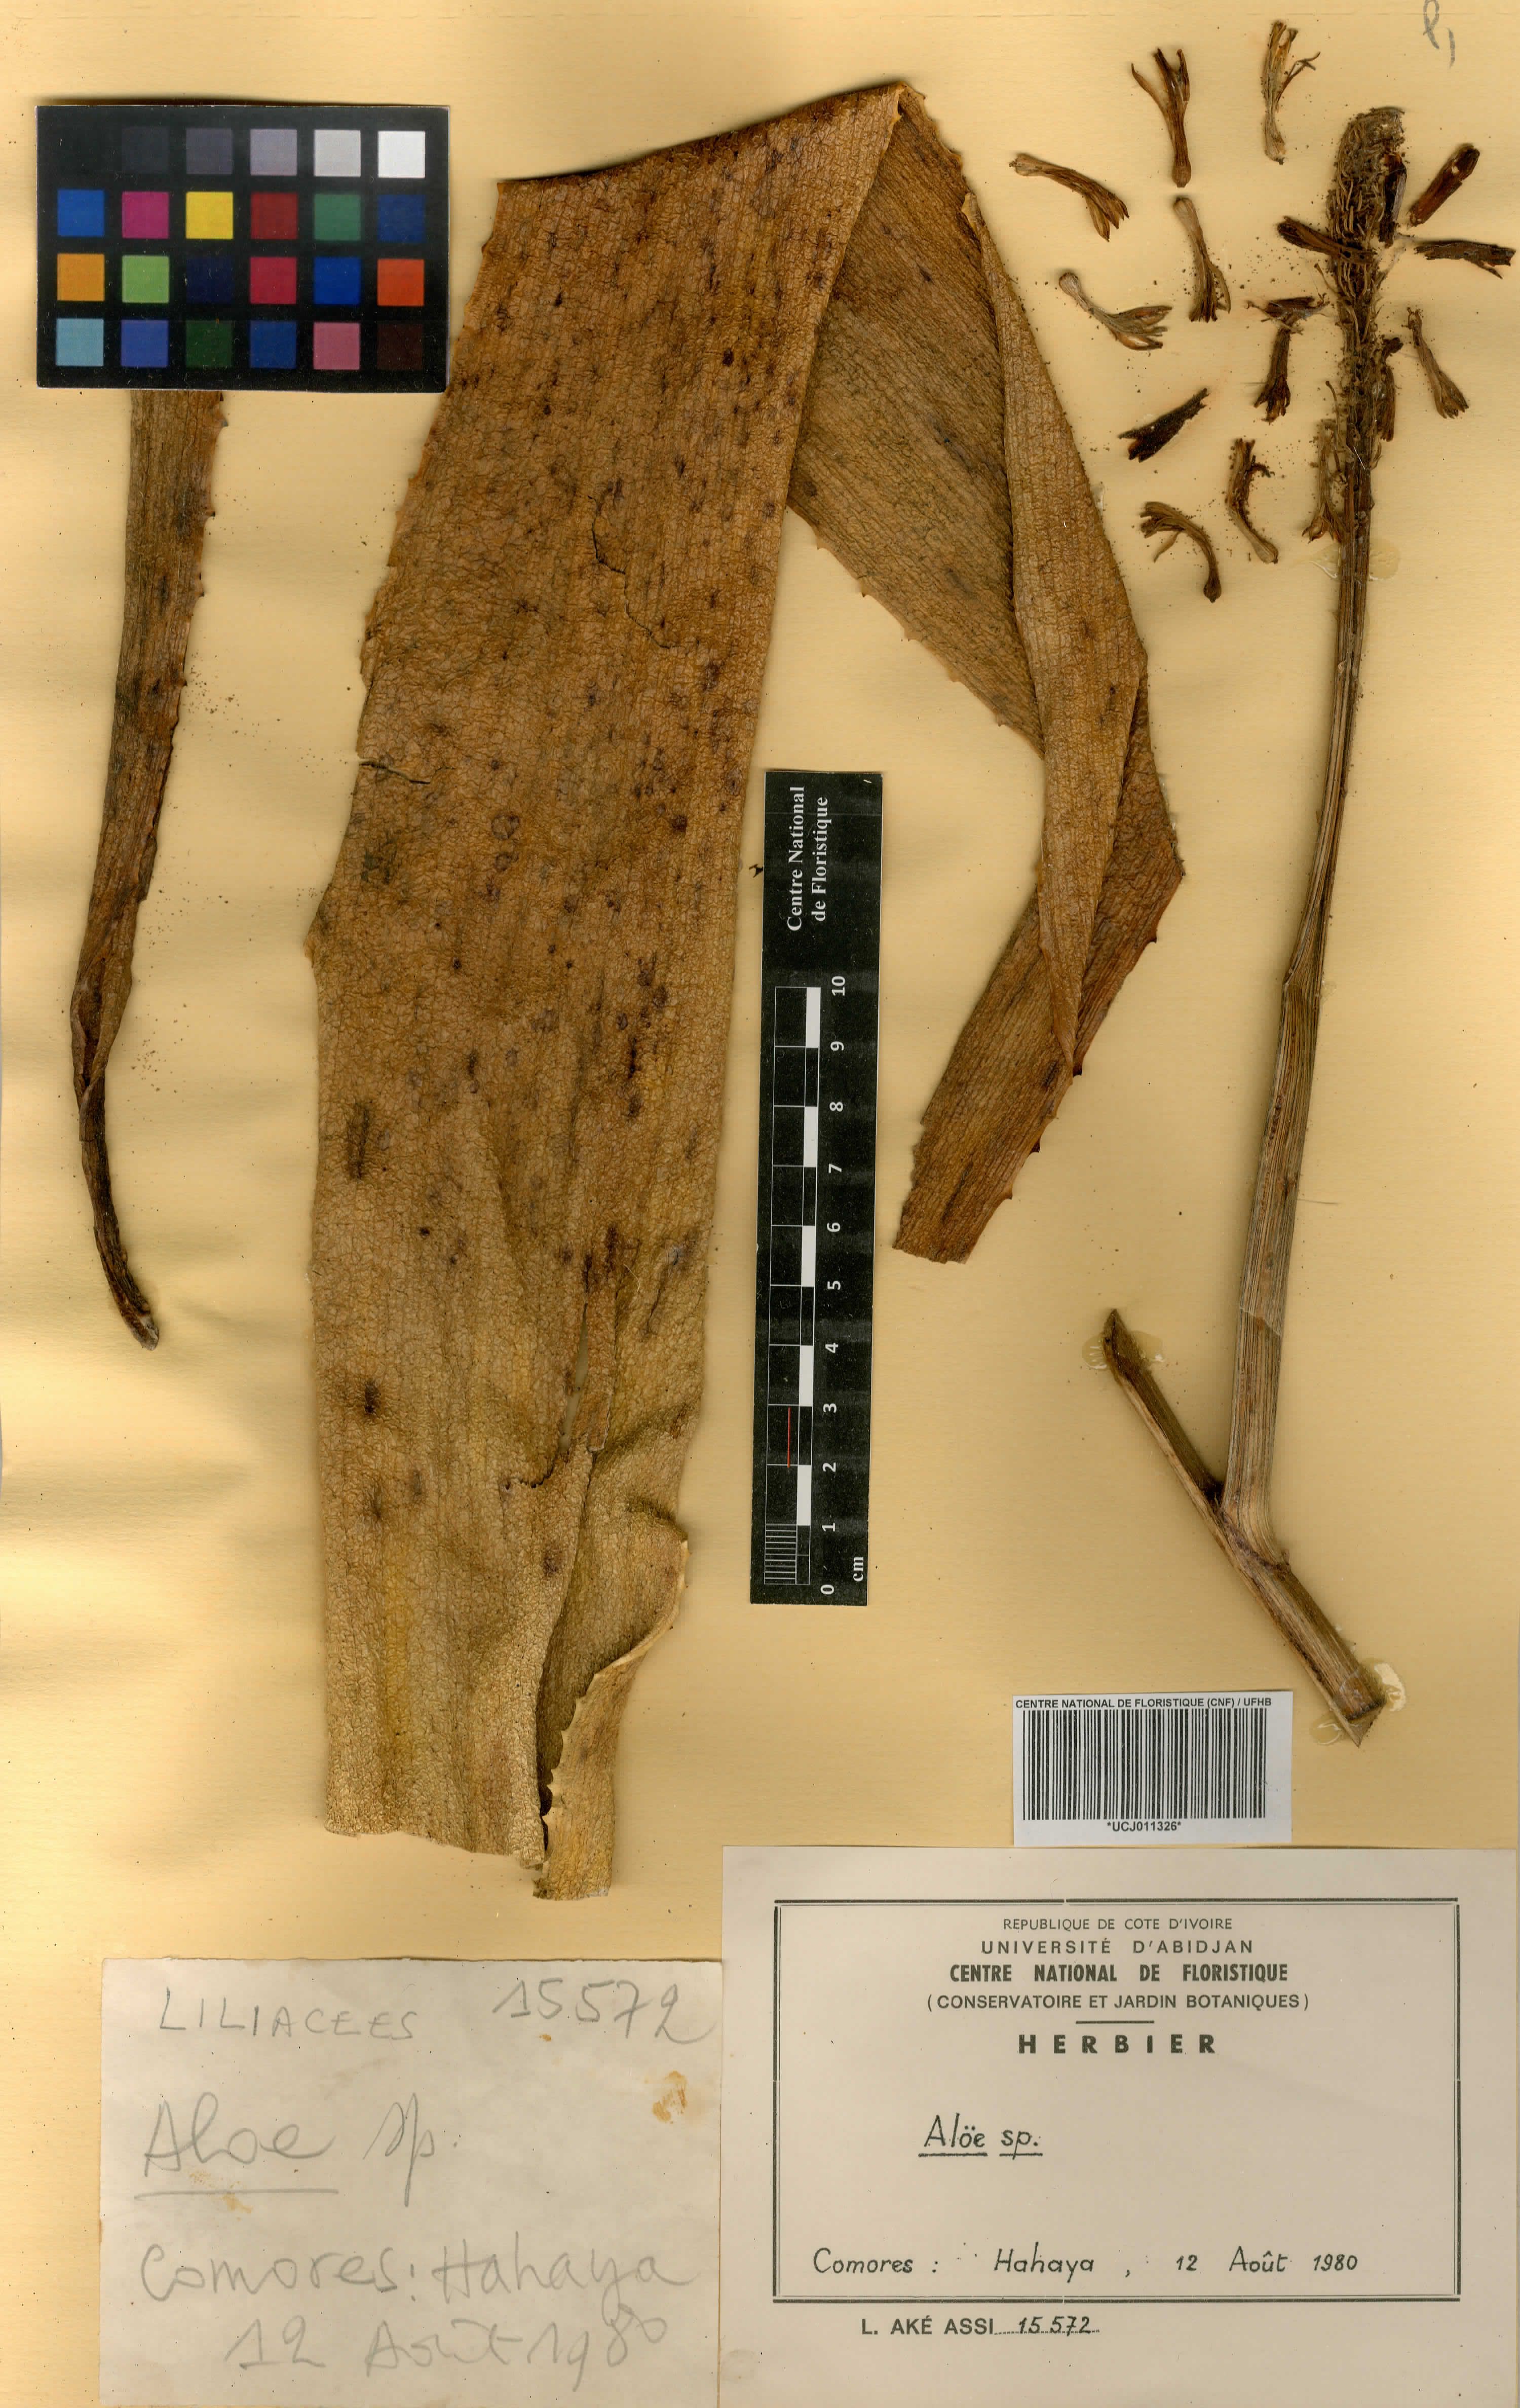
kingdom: Plantae
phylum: Tracheophyta
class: Liliopsida
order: Liliales
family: Liliaceae
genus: Aloe
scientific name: Aloe
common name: Aloe
